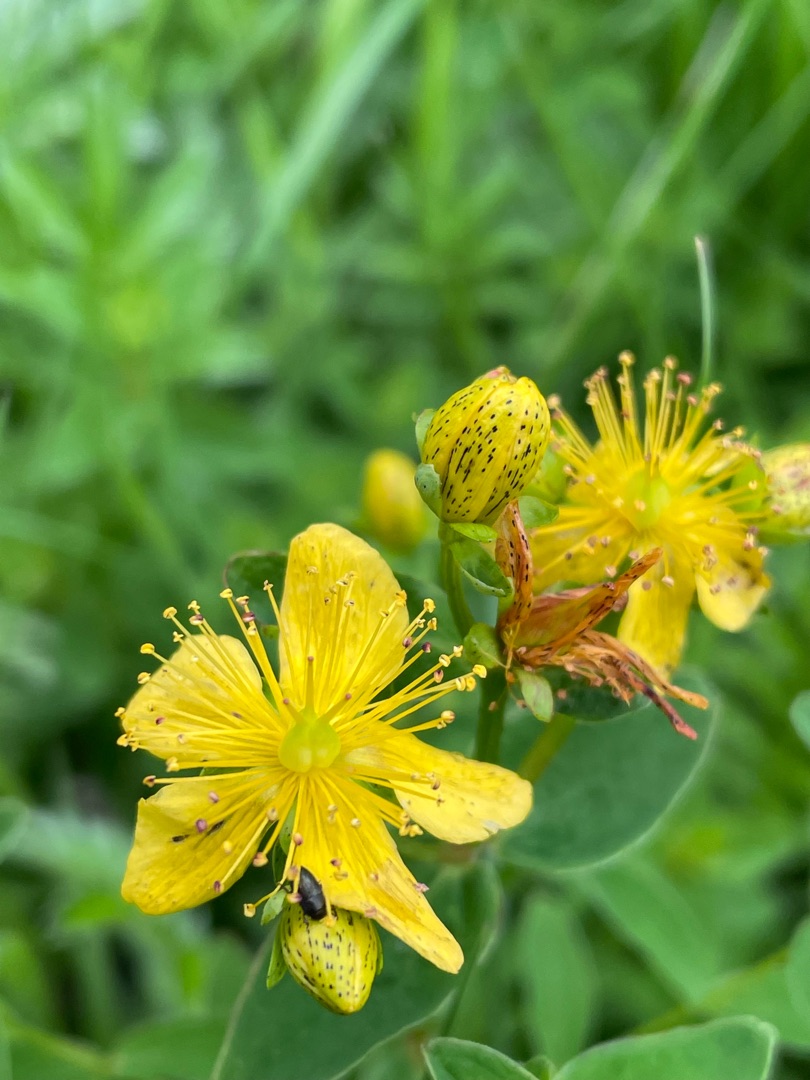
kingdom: Plantae
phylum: Tracheophyta
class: Magnoliopsida
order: Malpighiales
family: Hypericaceae
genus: Hypericum
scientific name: Hypericum maculatum
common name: Kantet perikon
